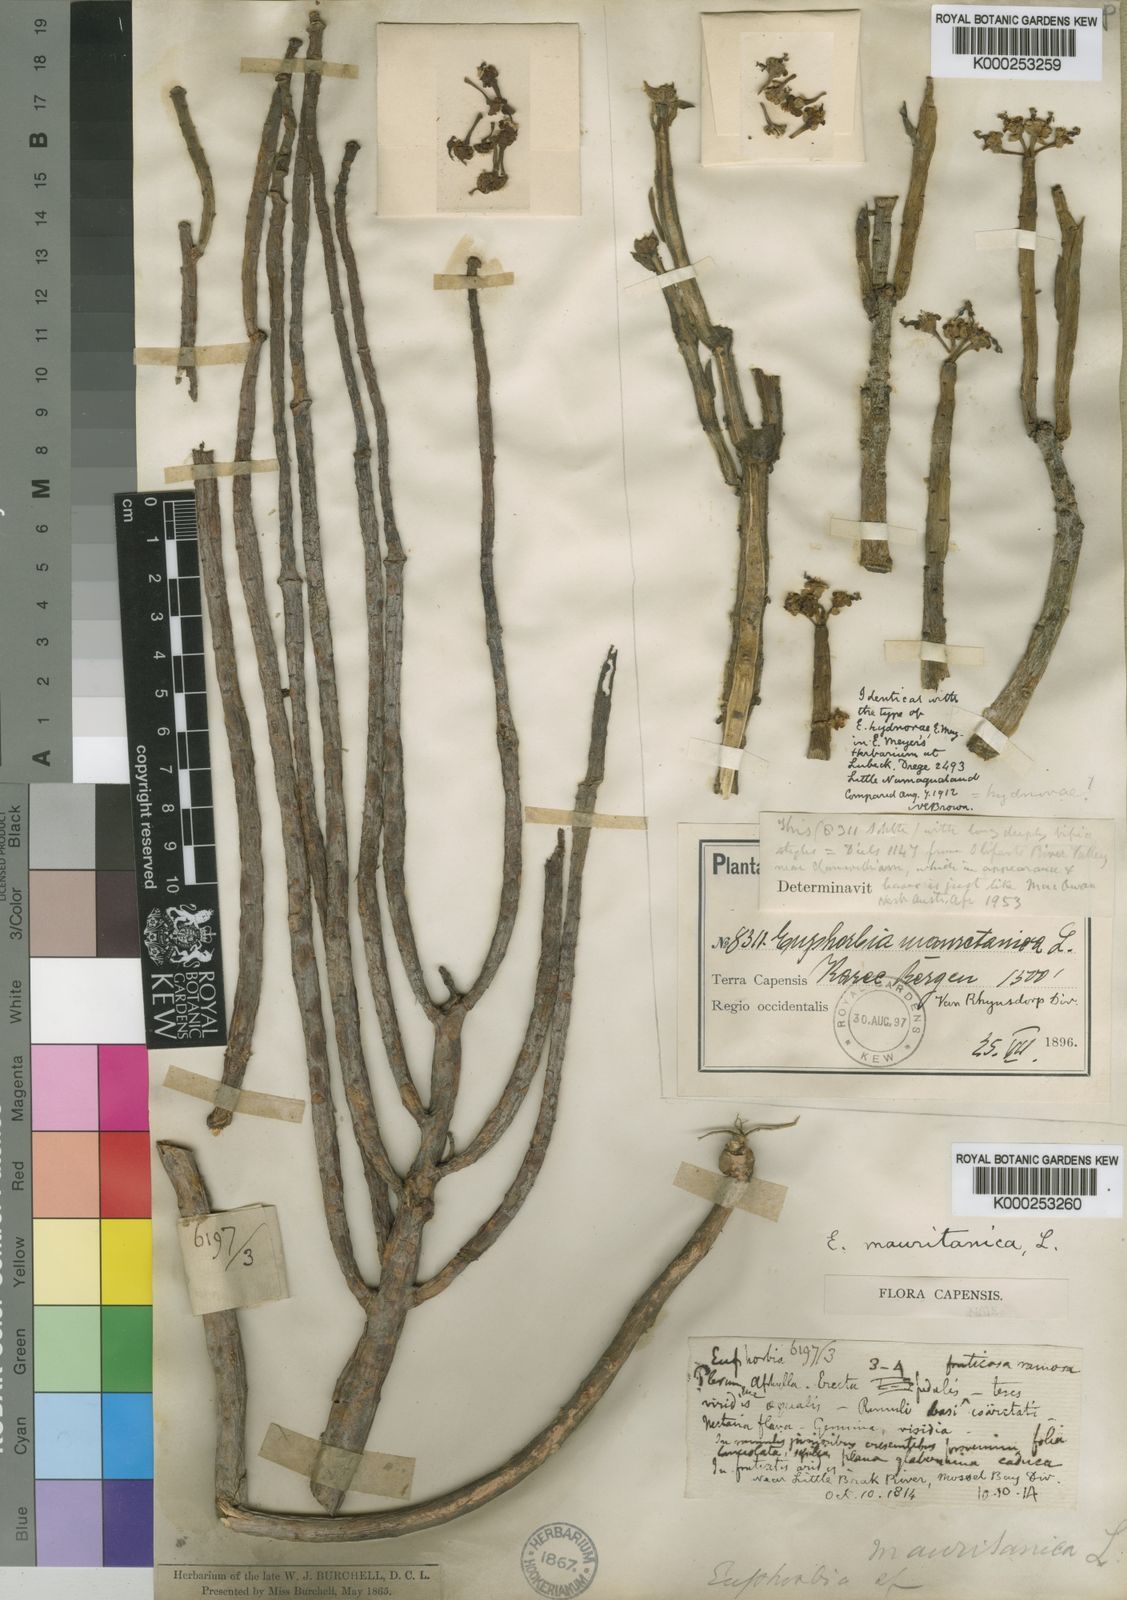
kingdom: Plantae
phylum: Tracheophyta
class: Magnoliopsida
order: Malpighiales
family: Euphorbiaceae
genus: Euphorbia
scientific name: Euphorbia mauritanica
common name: Jackal's-food
